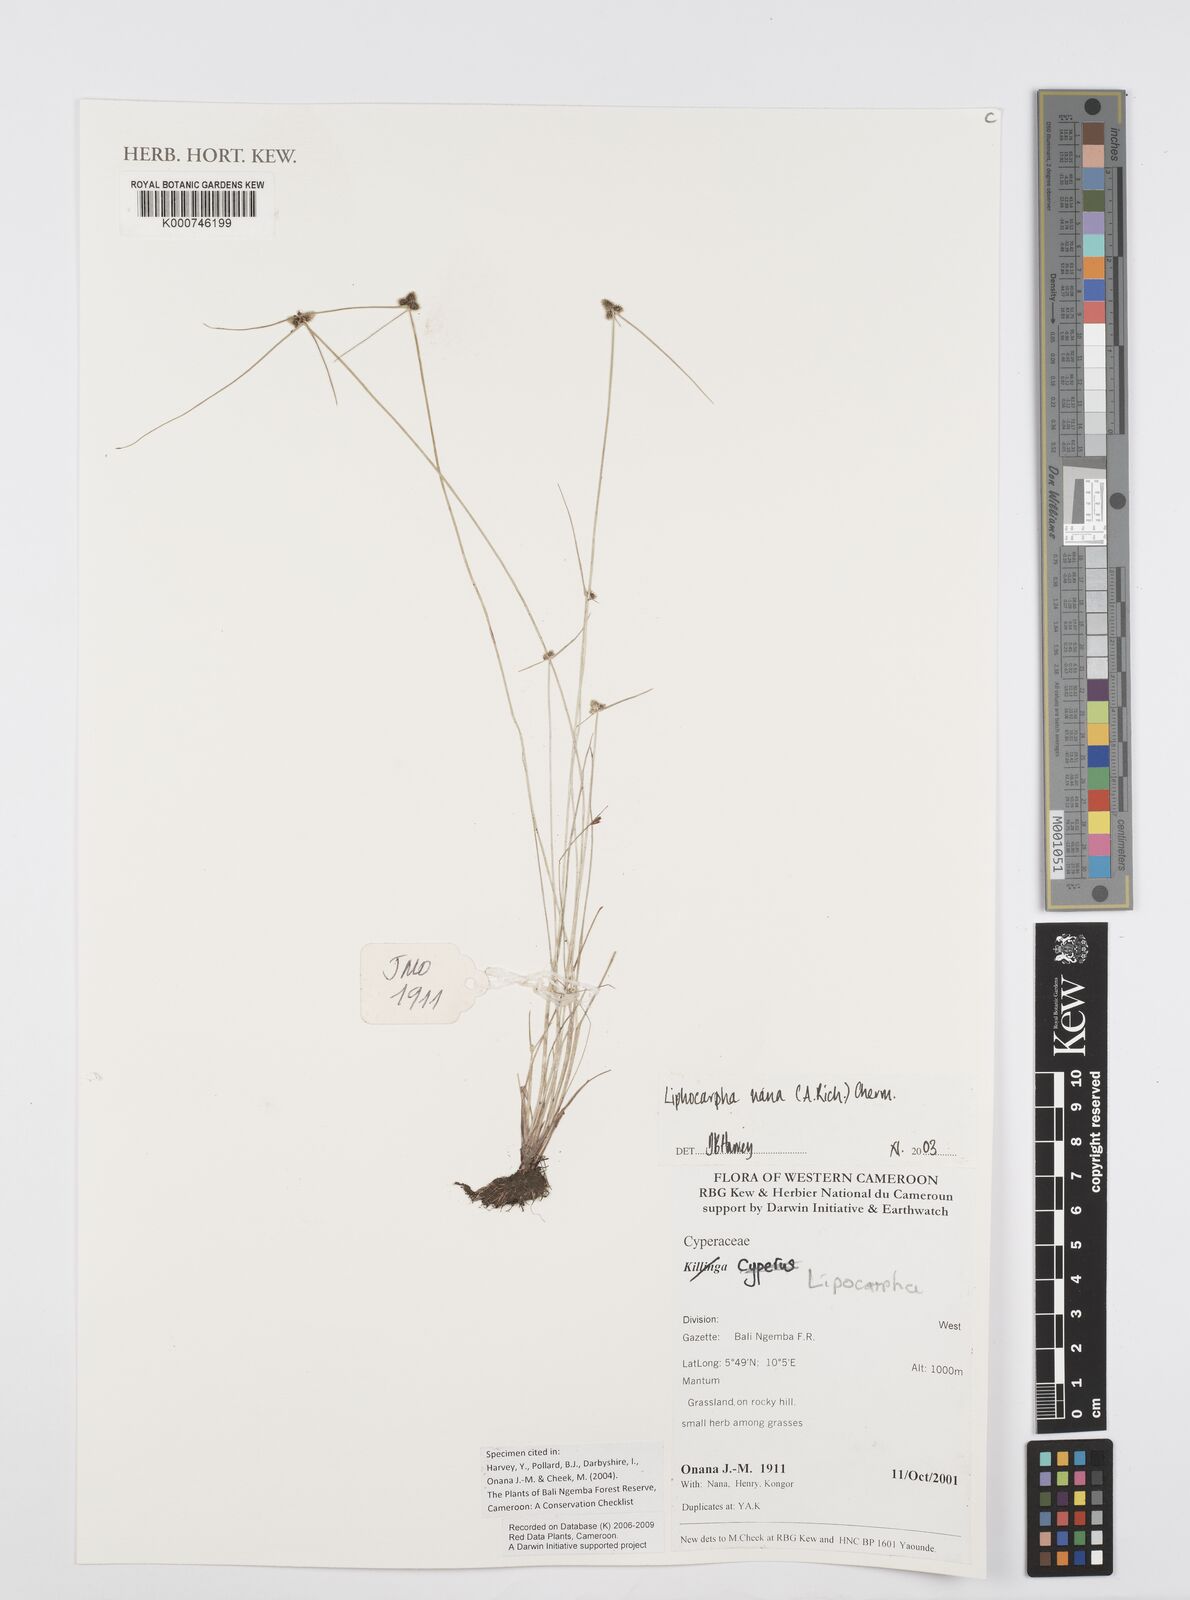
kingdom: Plantae
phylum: Tracheophyta
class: Liliopsida
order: Poales
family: Cyperaceae
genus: Cyperus
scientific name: Cyperus persquarrosus
